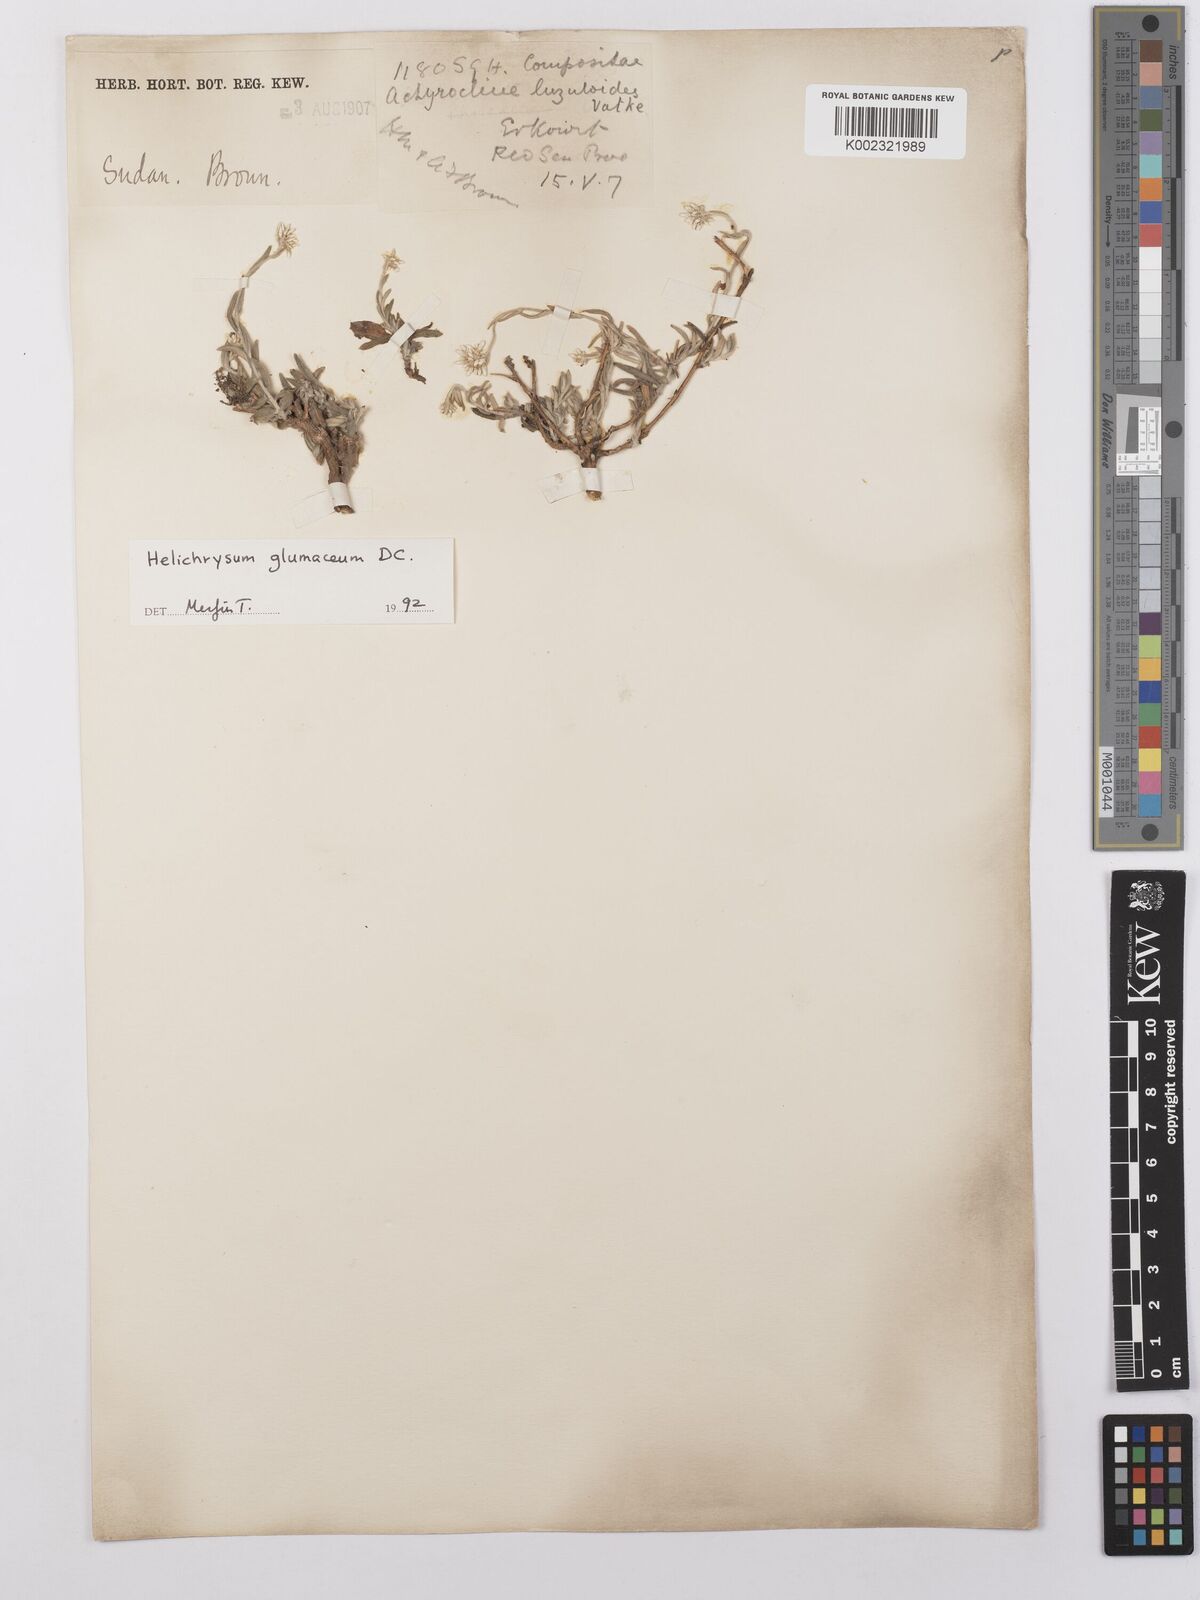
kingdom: Plantae
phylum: Tracheophyta
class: Magnoliopsida
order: Asterales
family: Asteraceae
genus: Helichrysum
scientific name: Helichrysum glumaceum
